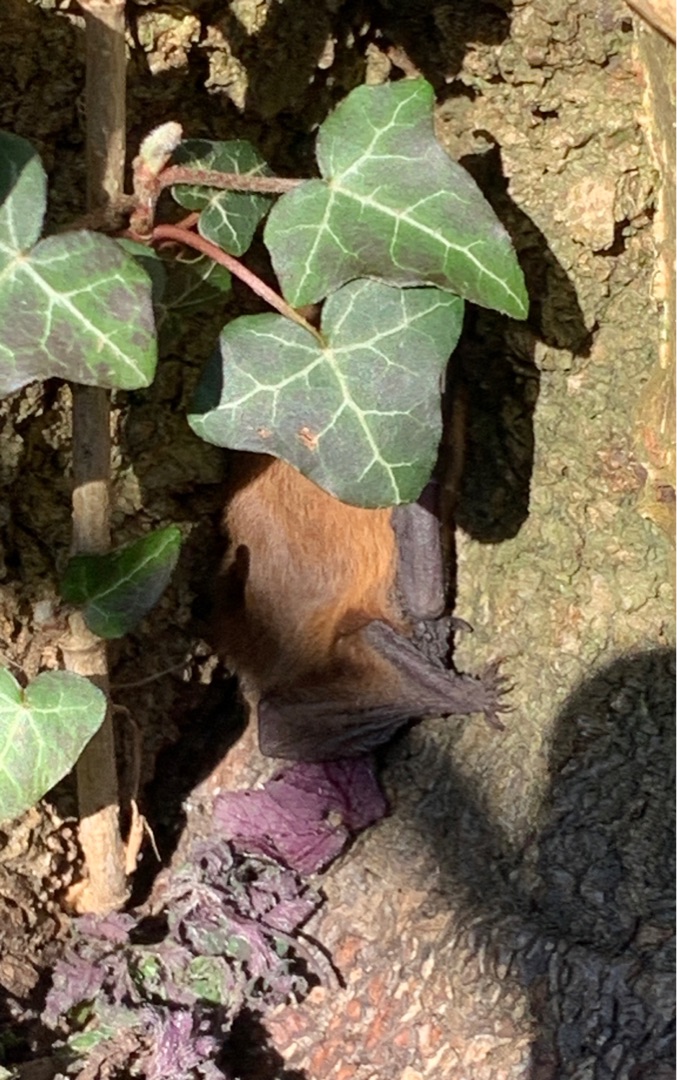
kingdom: Animalia
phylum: Chordata
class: Mammalia
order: Chiroptera
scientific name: Chiroptera
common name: Flagermus
